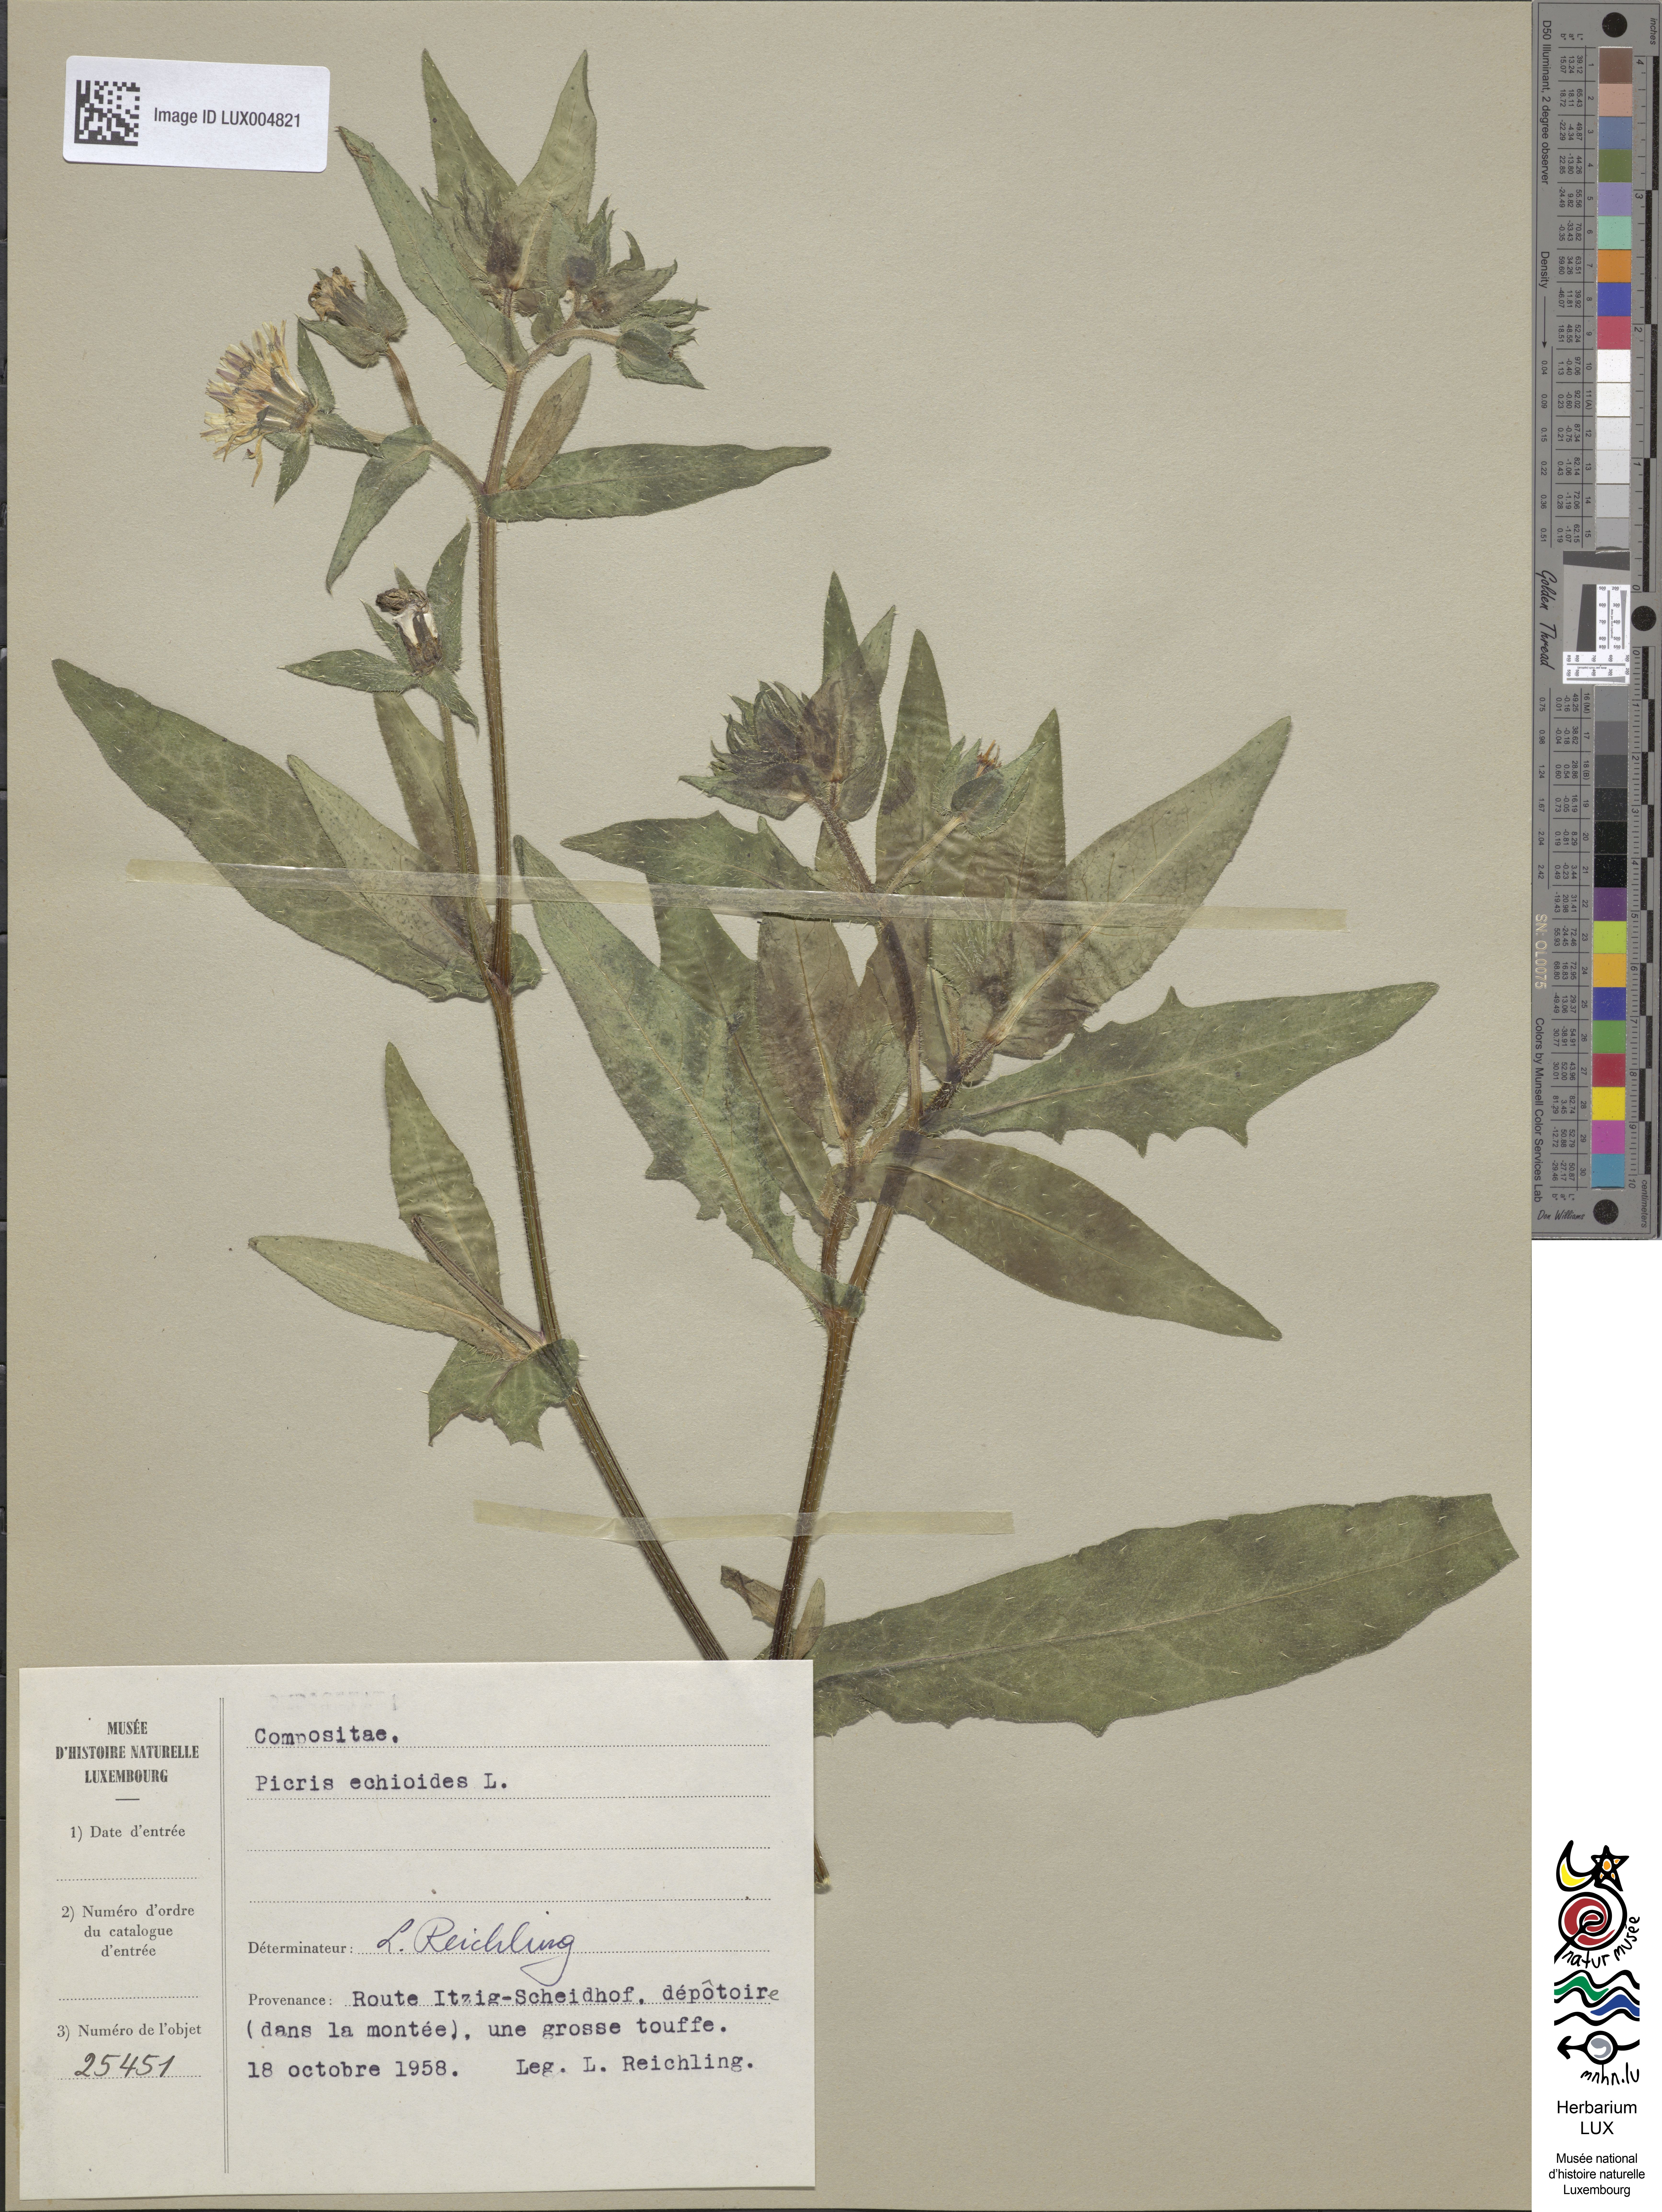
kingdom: Plantae
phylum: Tracheophyta
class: Magnoliopsida
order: Asterales
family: Asteraceae
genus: Helminthotheca
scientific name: Helminthotheca echioides
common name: Ox-tongue
